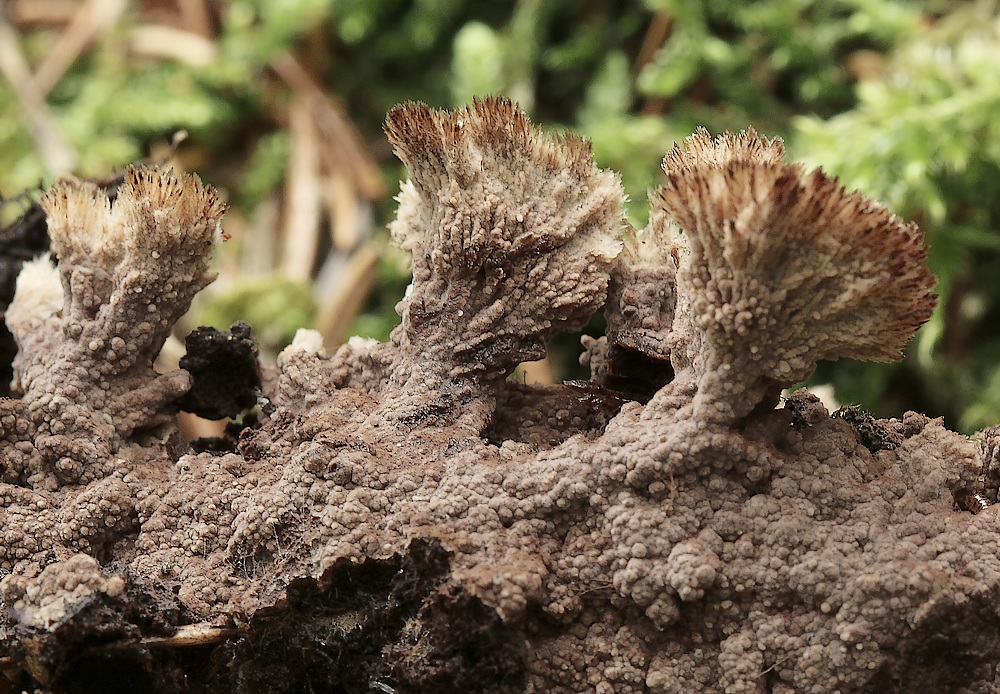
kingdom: Fungi
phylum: Basidiomycota
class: Agaricomycetes
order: Thelephorales
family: Thelephoraceae
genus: Thelephora
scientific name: Thelephora palmata
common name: grenet frynsesvamp
